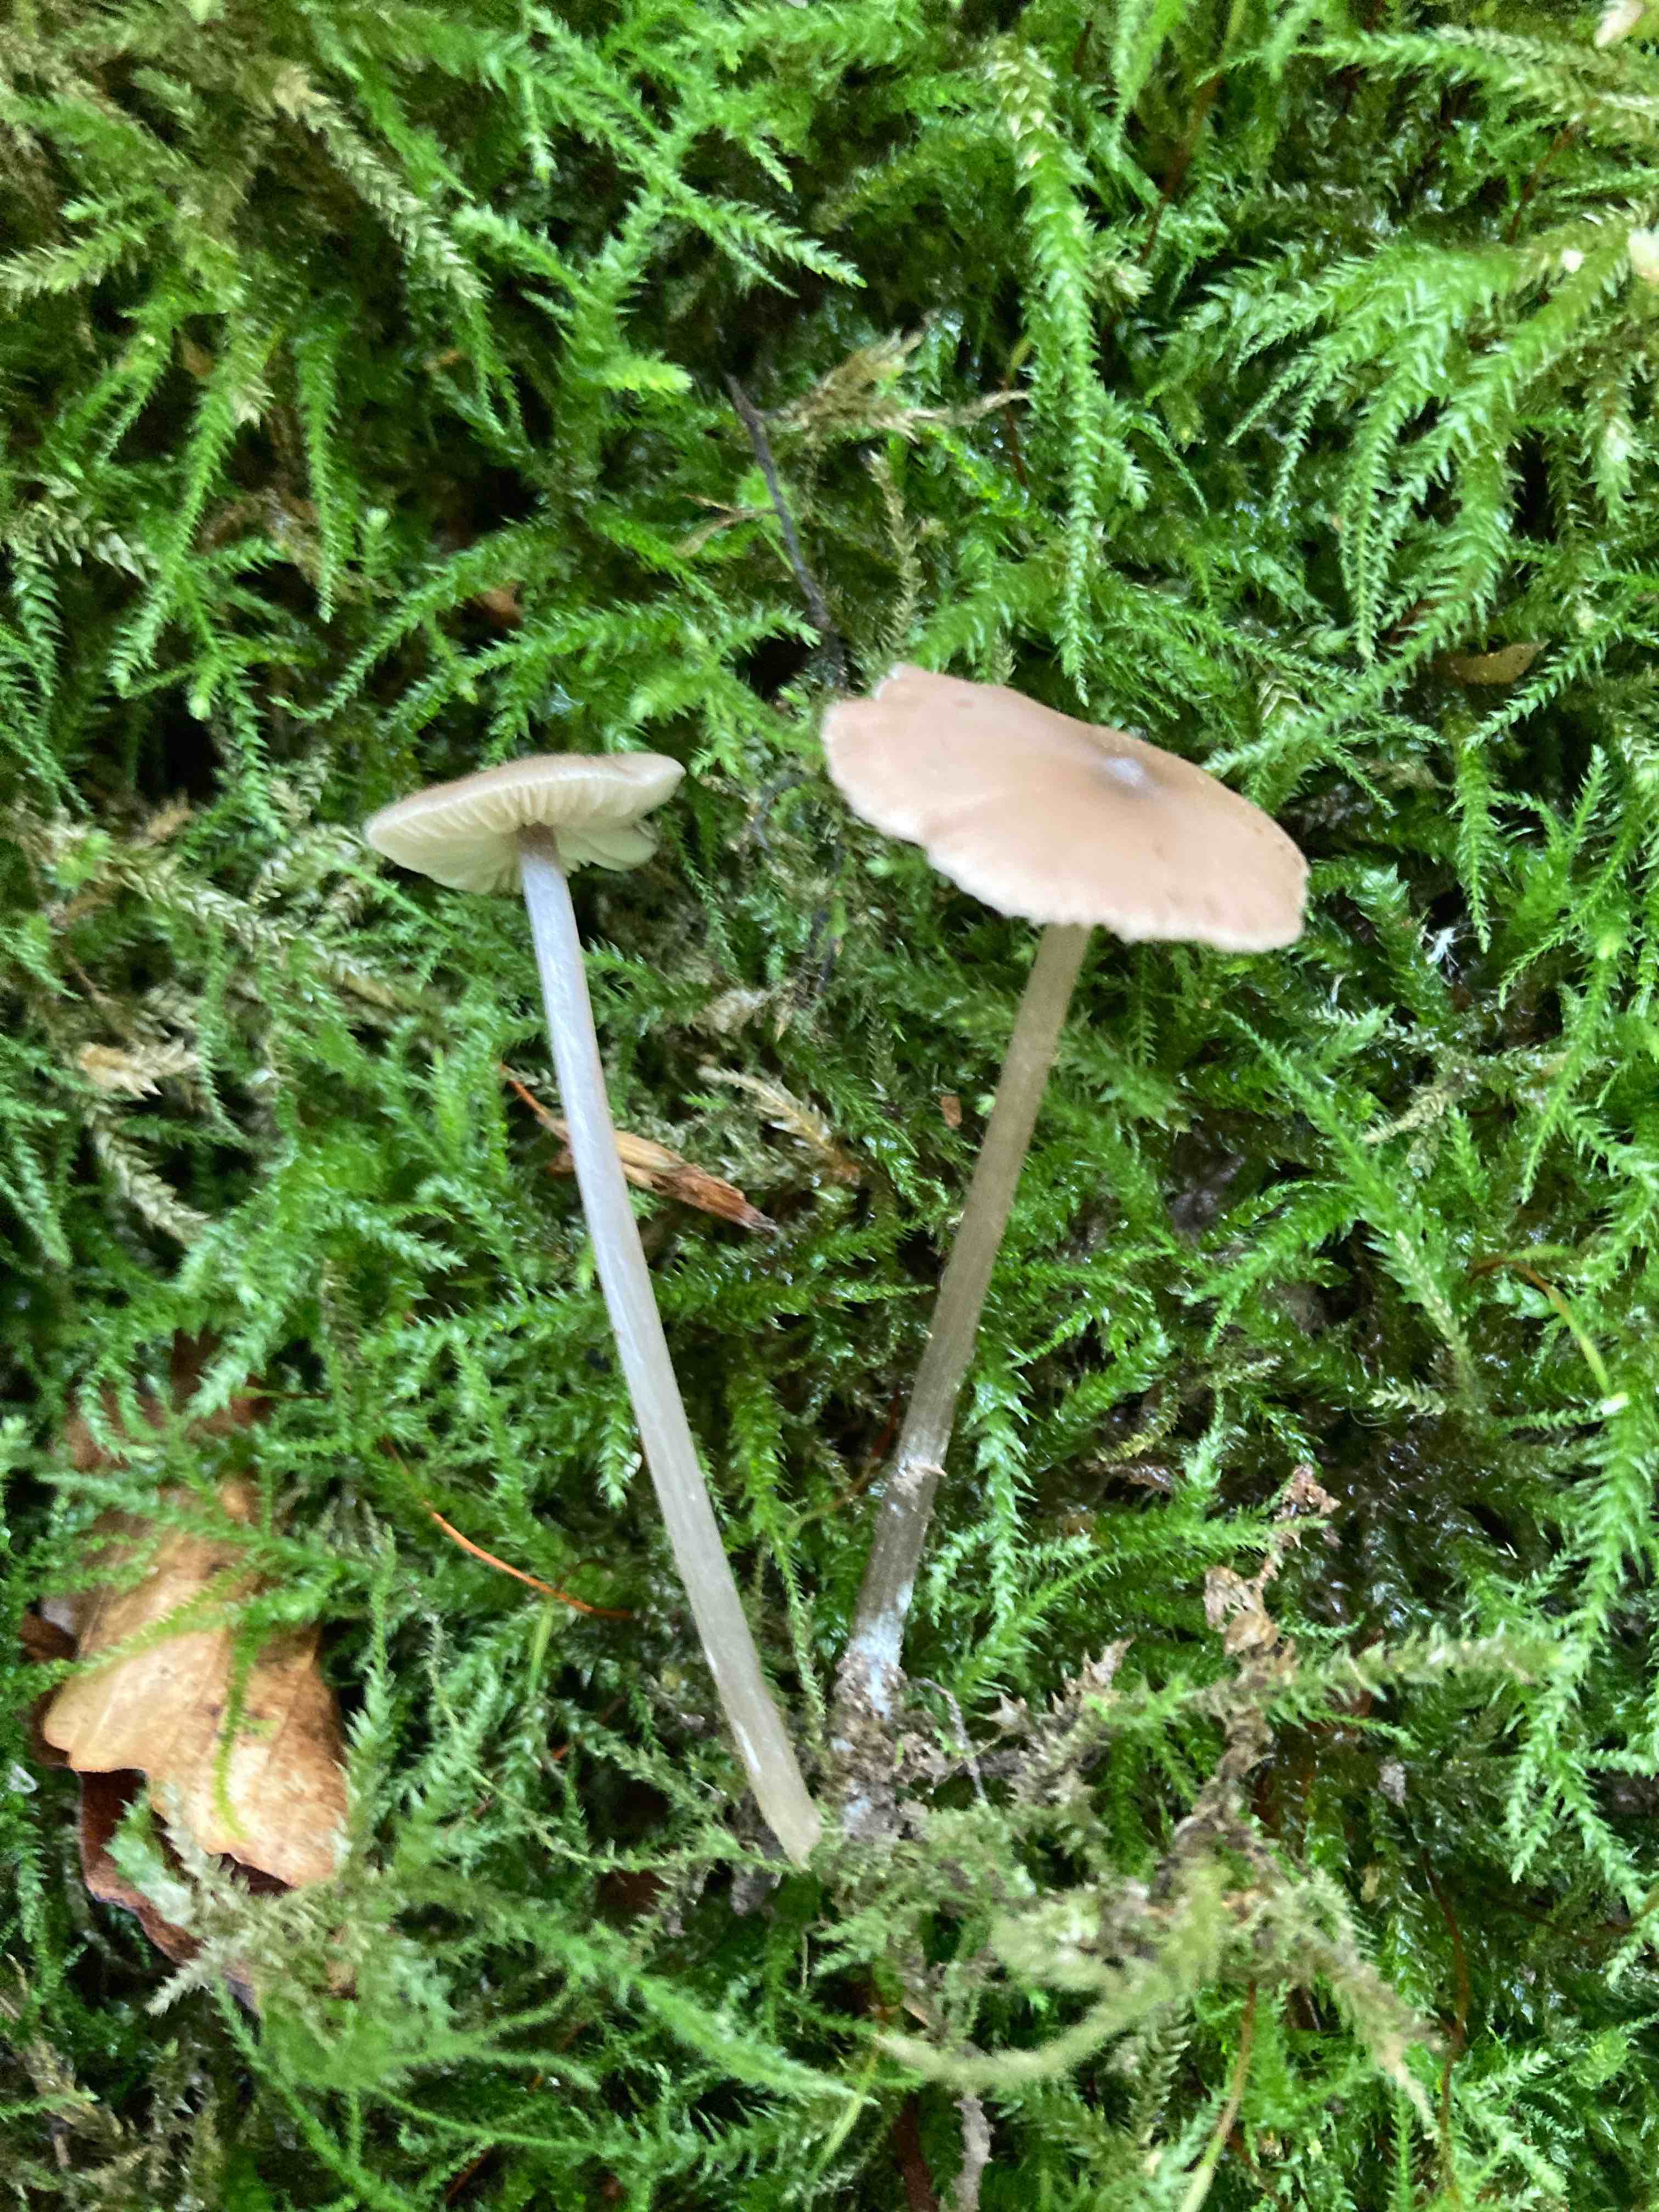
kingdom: Fungi
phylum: Basidiomycota
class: Agaricomycetes
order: Agaricales
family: Entolomataceae
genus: Entoloma
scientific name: Entoloma hebes
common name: krat-rødblad
